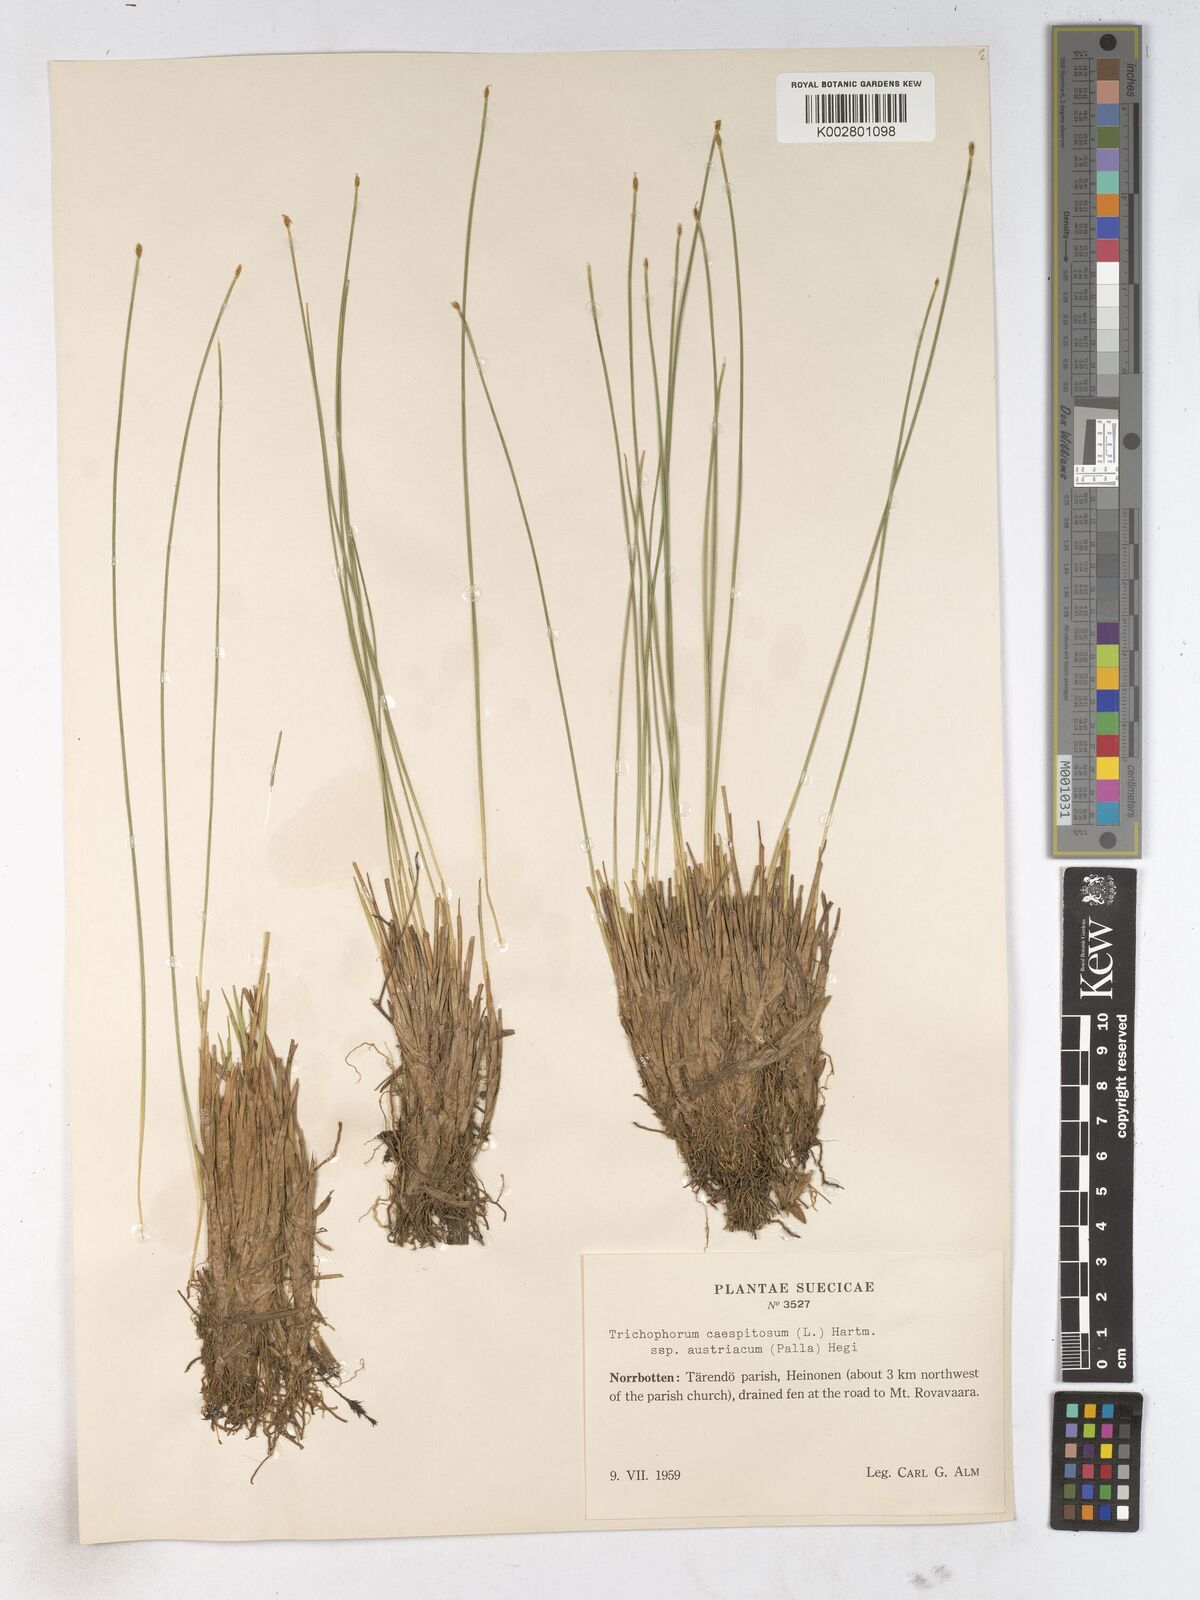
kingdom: Plantae
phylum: Tracheophyta
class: Liliopsida
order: Poales
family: Cyperaceae
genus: Trichophorum
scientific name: Trichophorum cespitosum
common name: Cespitose bulrush
